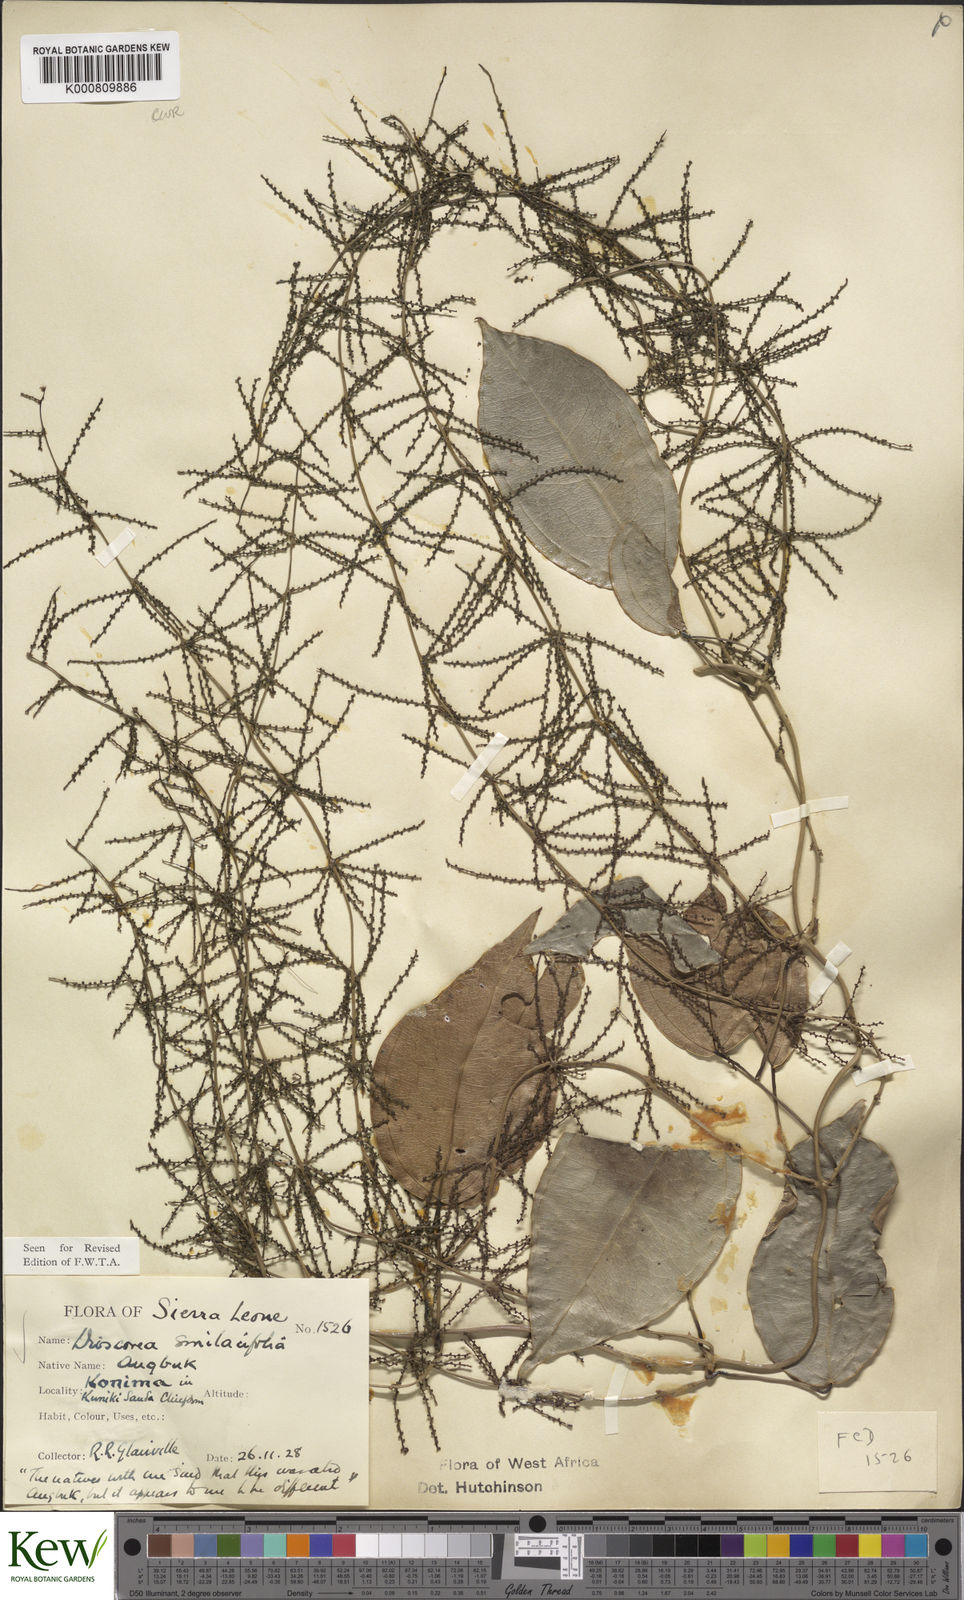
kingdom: Plantae
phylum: Tracheophyta
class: Liliopsida
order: Dioscoreales
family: Dioscoreaceae
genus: Dioscorea
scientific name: Dioscorea smilacifolia
